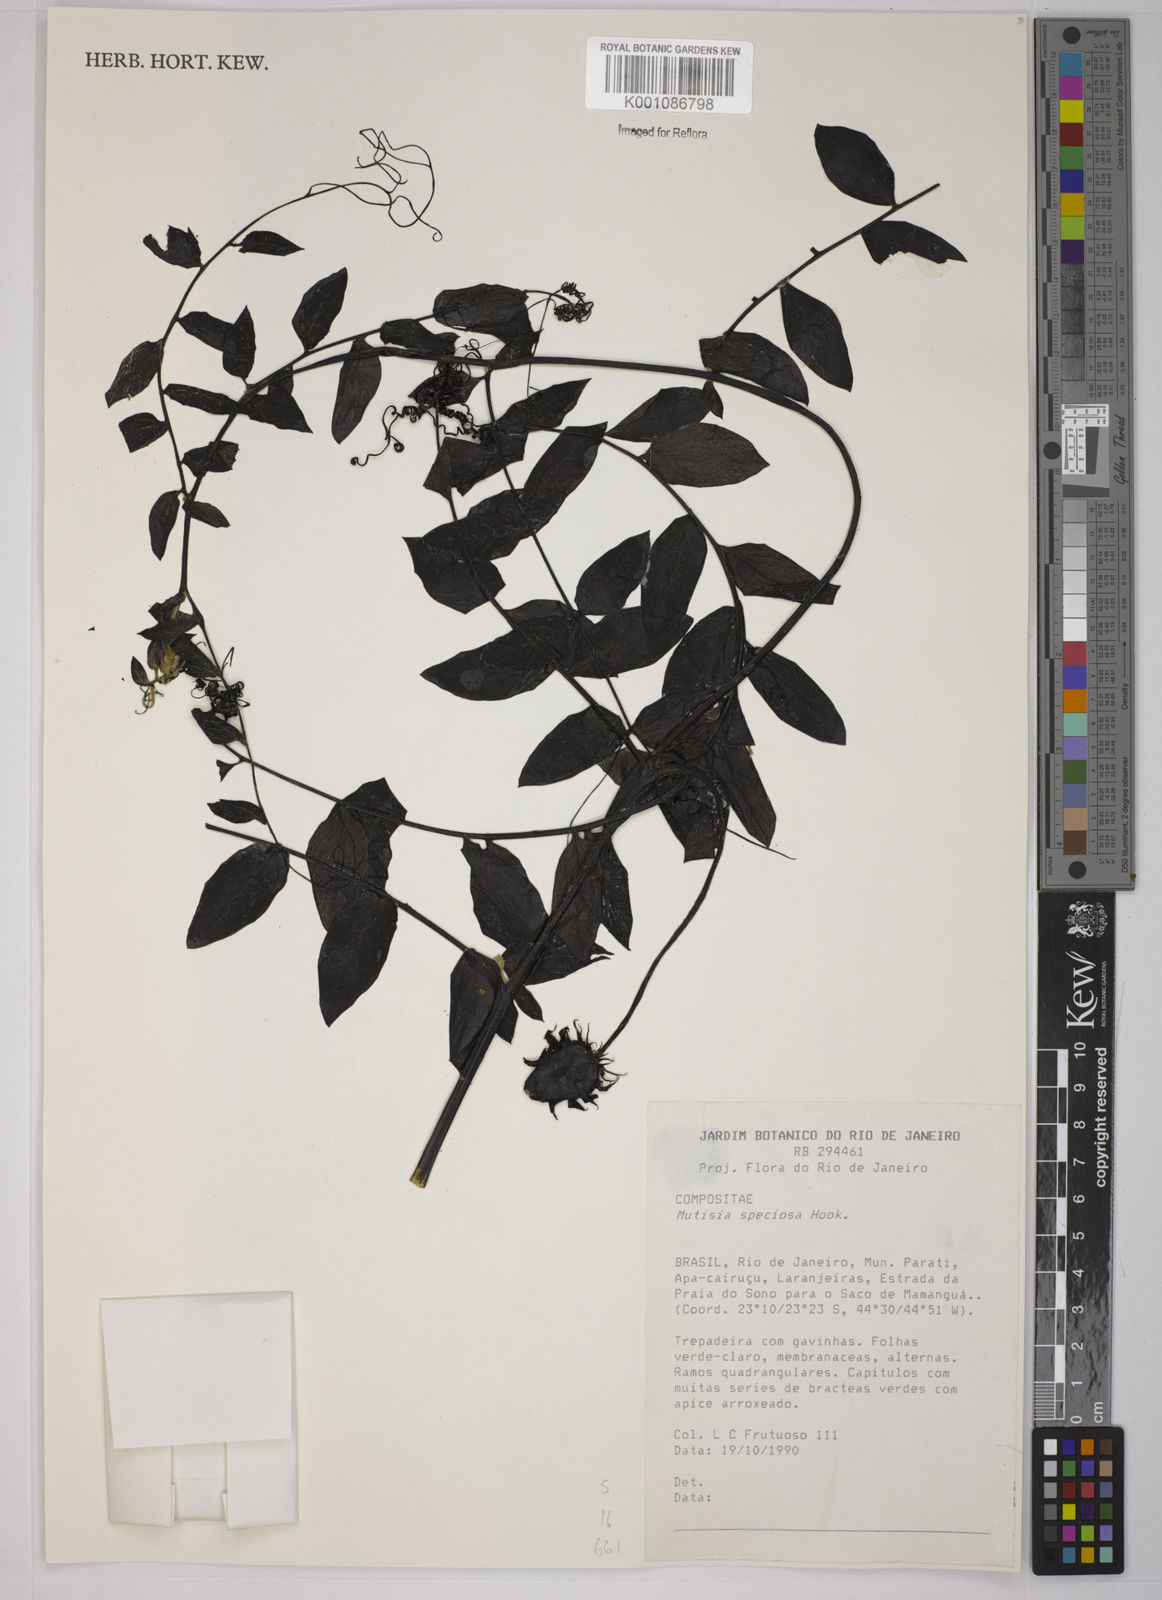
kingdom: Plantae
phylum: Tracheophyta
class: Magnoliopsida
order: Asterales
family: Asteraceae
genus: Mutisia
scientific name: Mutisia speciosa
